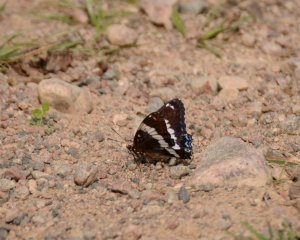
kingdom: Animalia
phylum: Arthropoda
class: Insecta
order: Lepidoptera
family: Nymphalidae
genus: Limenitis
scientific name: Limenitis arthemis
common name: Red-spotted Admiral
